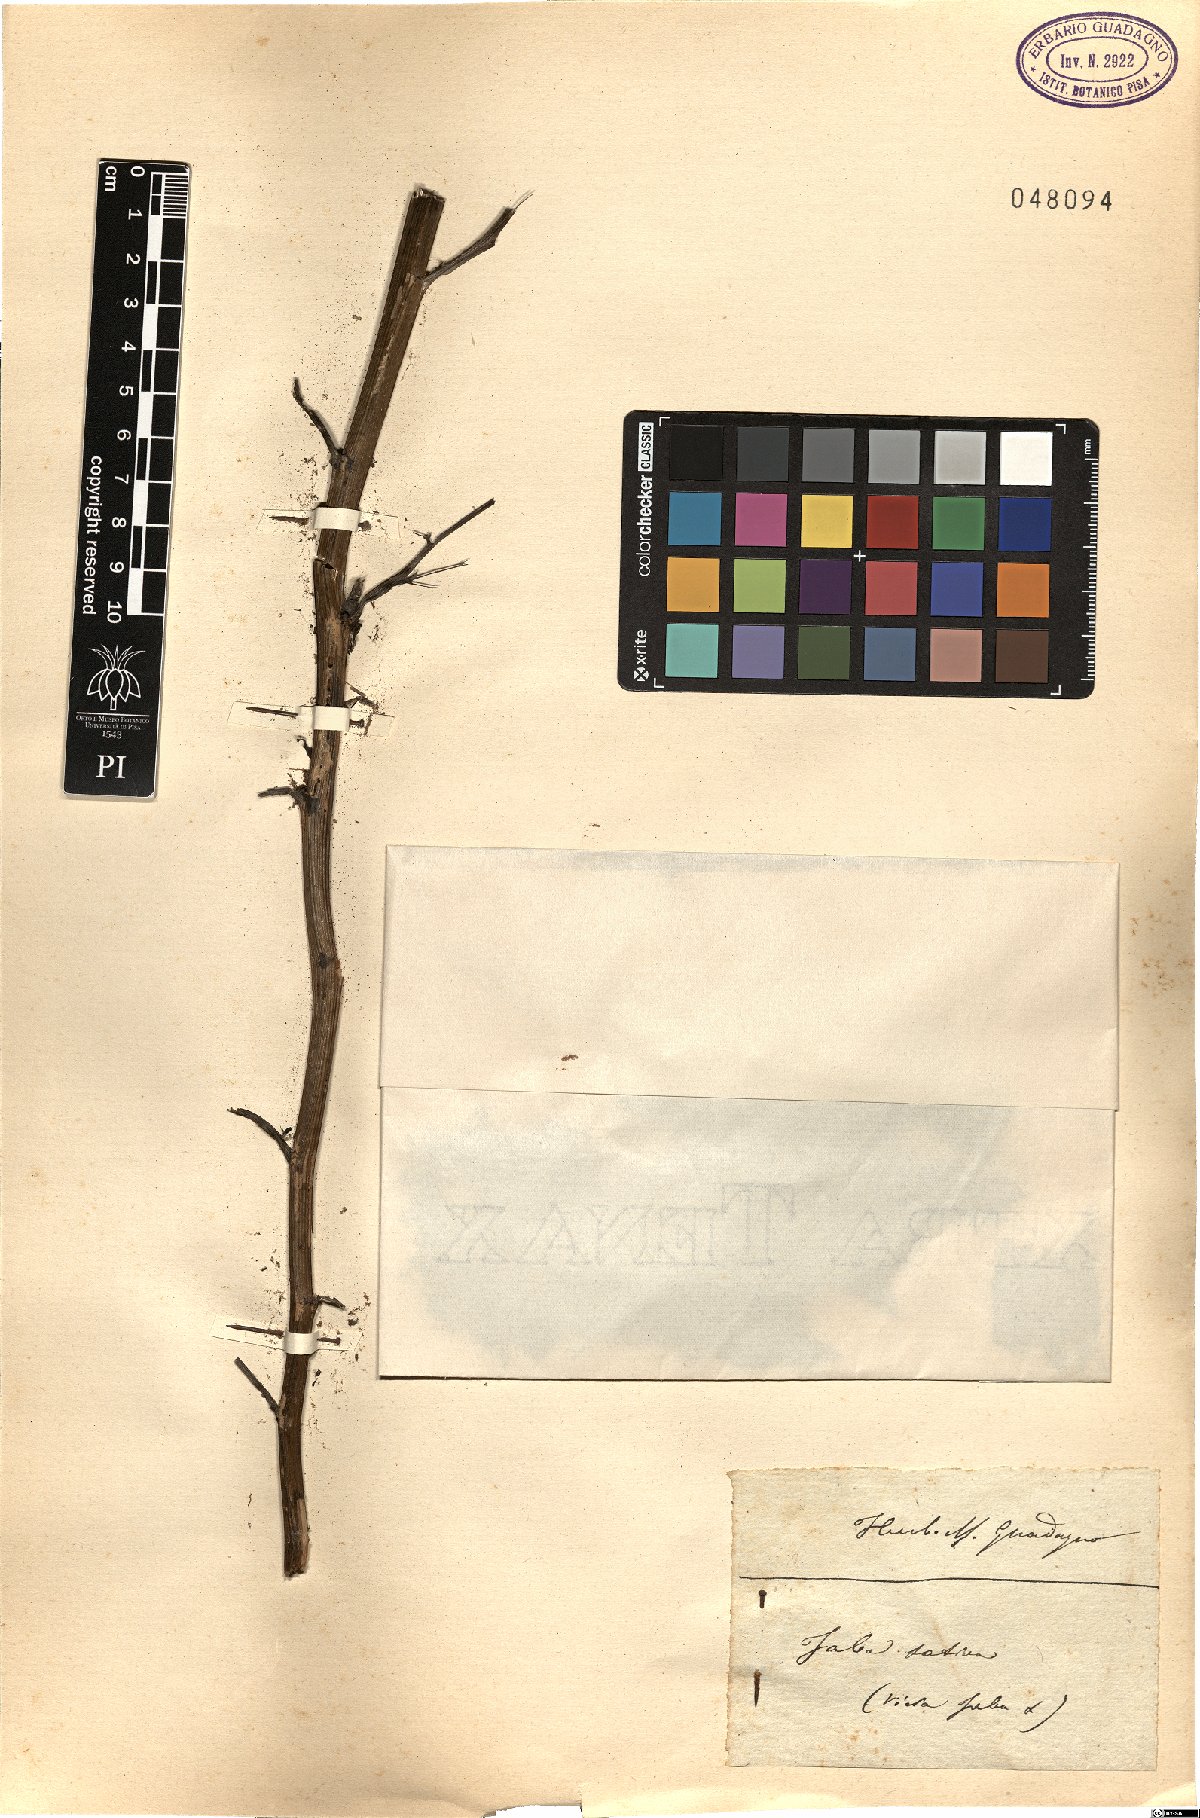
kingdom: Plantae
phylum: Tracheophyta
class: Magnoliopsida
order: Fabales
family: Fabaceae
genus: Vicia
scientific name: Vicia faba
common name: Broad bean
